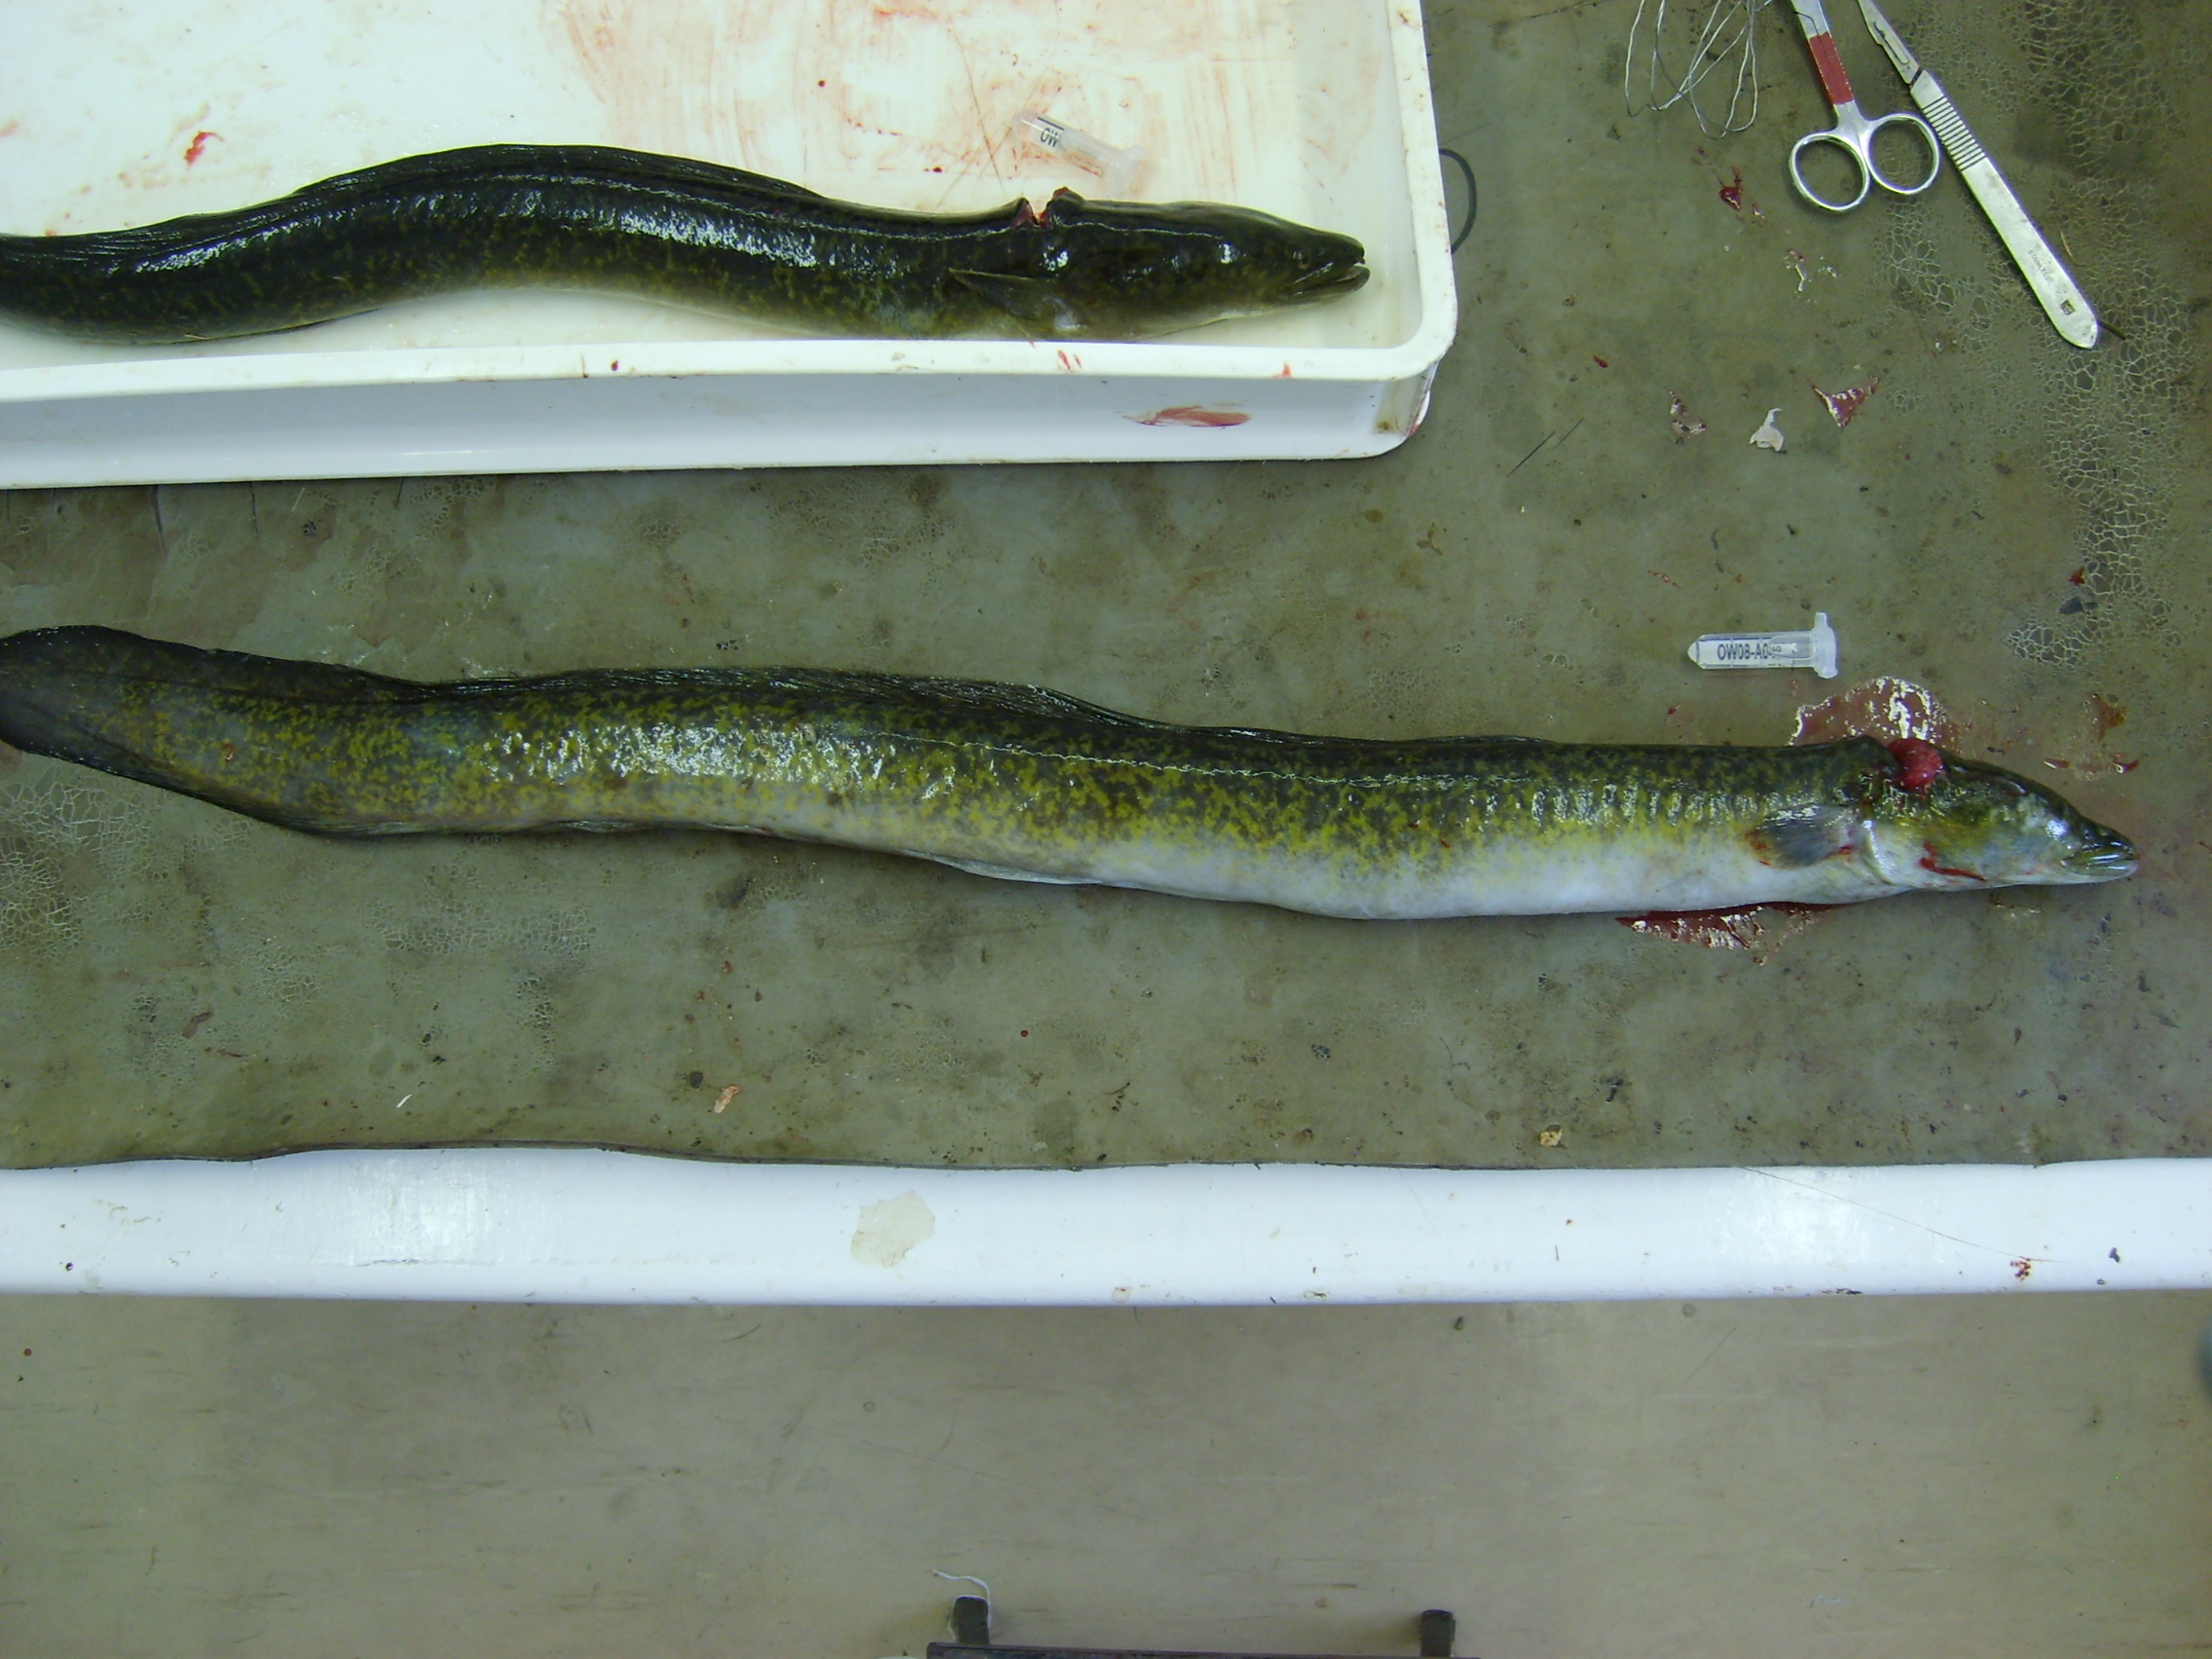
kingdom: Animalia
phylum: Chordata
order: Anguilliformes
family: Anguillidae
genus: Anguilla
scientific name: Anguilla marmorata
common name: Giant mottled eel
